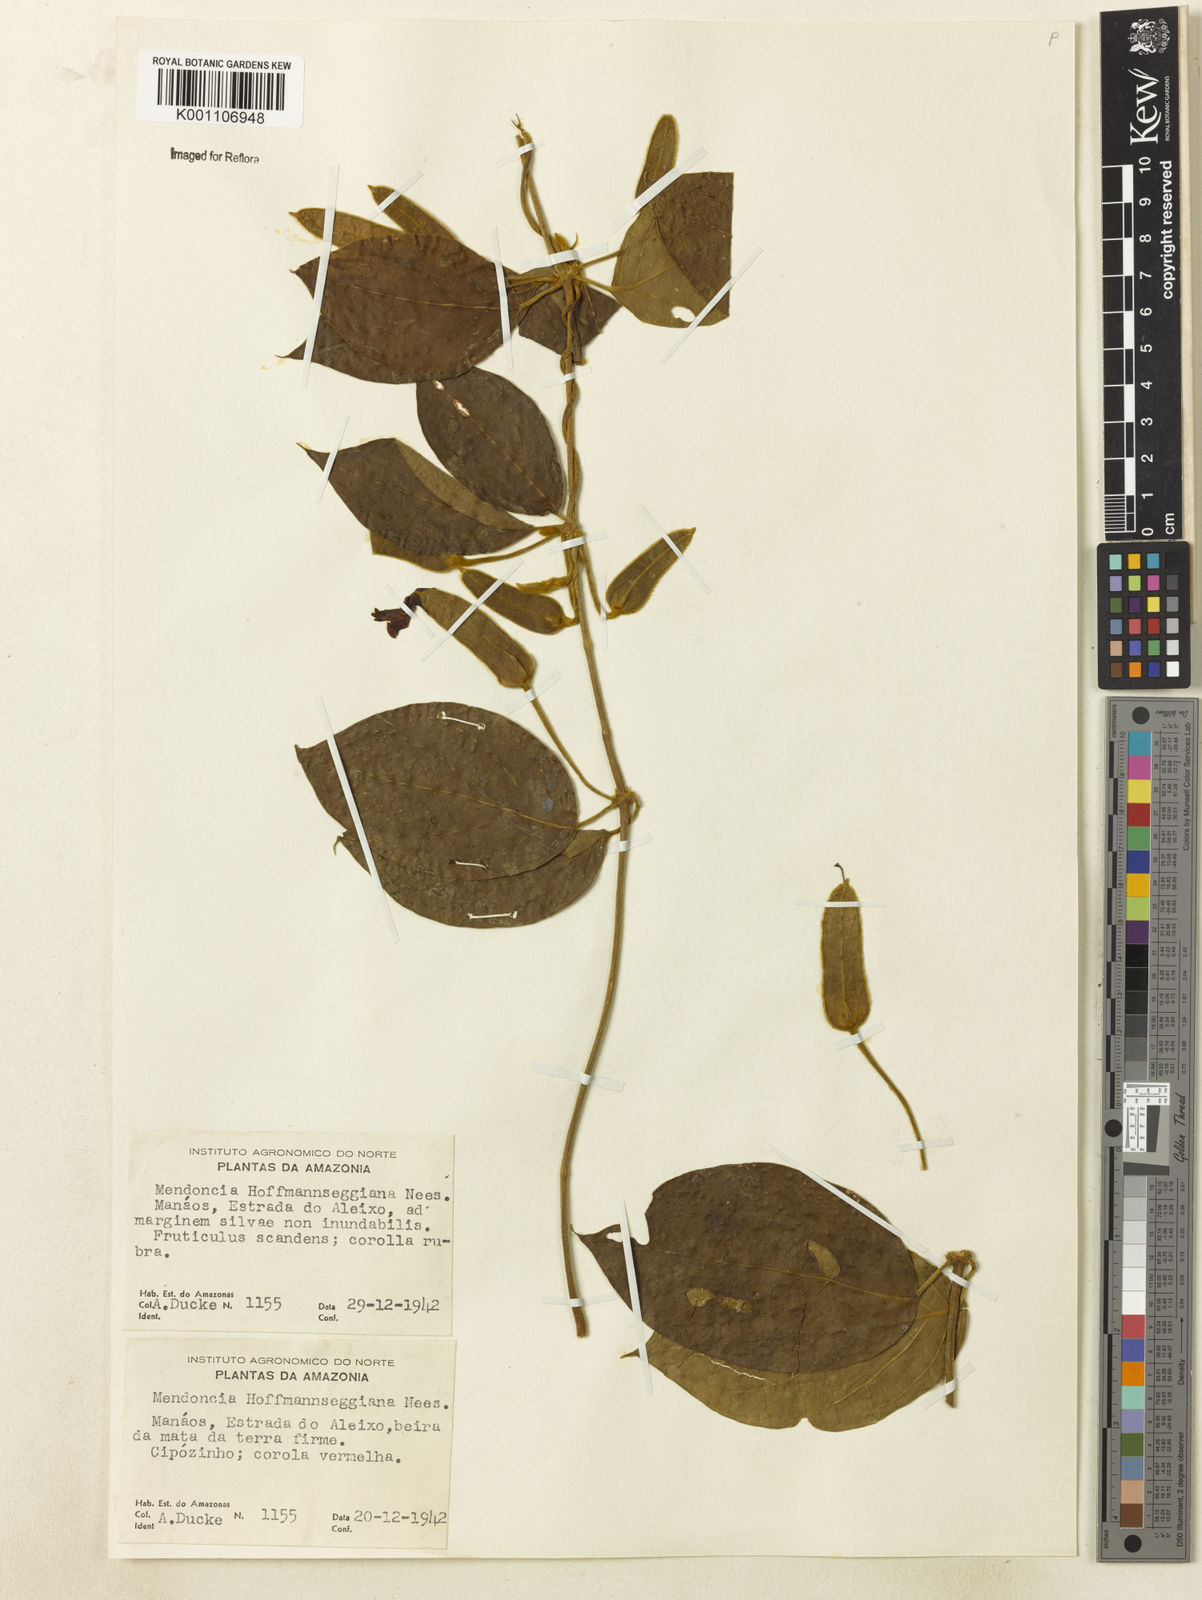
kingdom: Plantae
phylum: Tracheophyta
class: Magnoliopsida
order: Lamiales
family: Acanthaceae
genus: Mendoncia
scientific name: Mendoncia hoffmannseggiana
